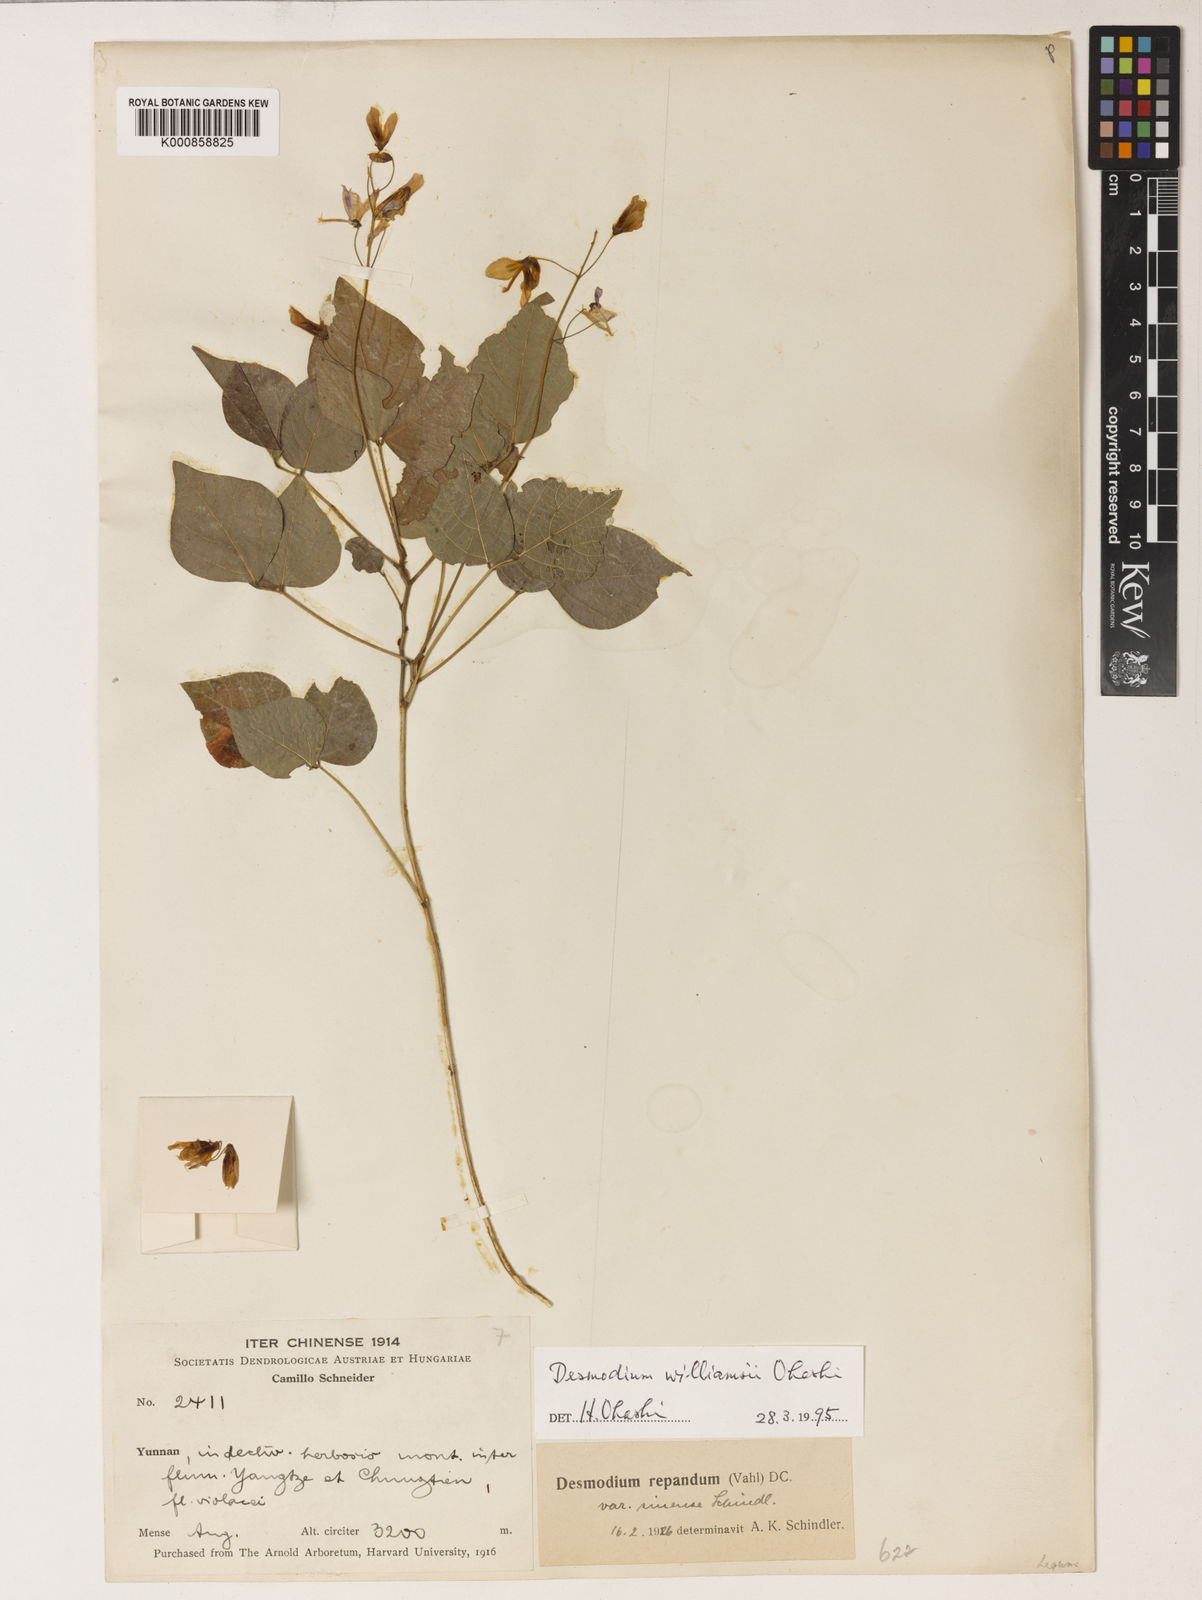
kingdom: Plantae
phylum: Tracheophyta
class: Magnoliopsida
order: Fabales
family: Fabaceae
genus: Hylodesmum
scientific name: Hylodesmum williamsii
